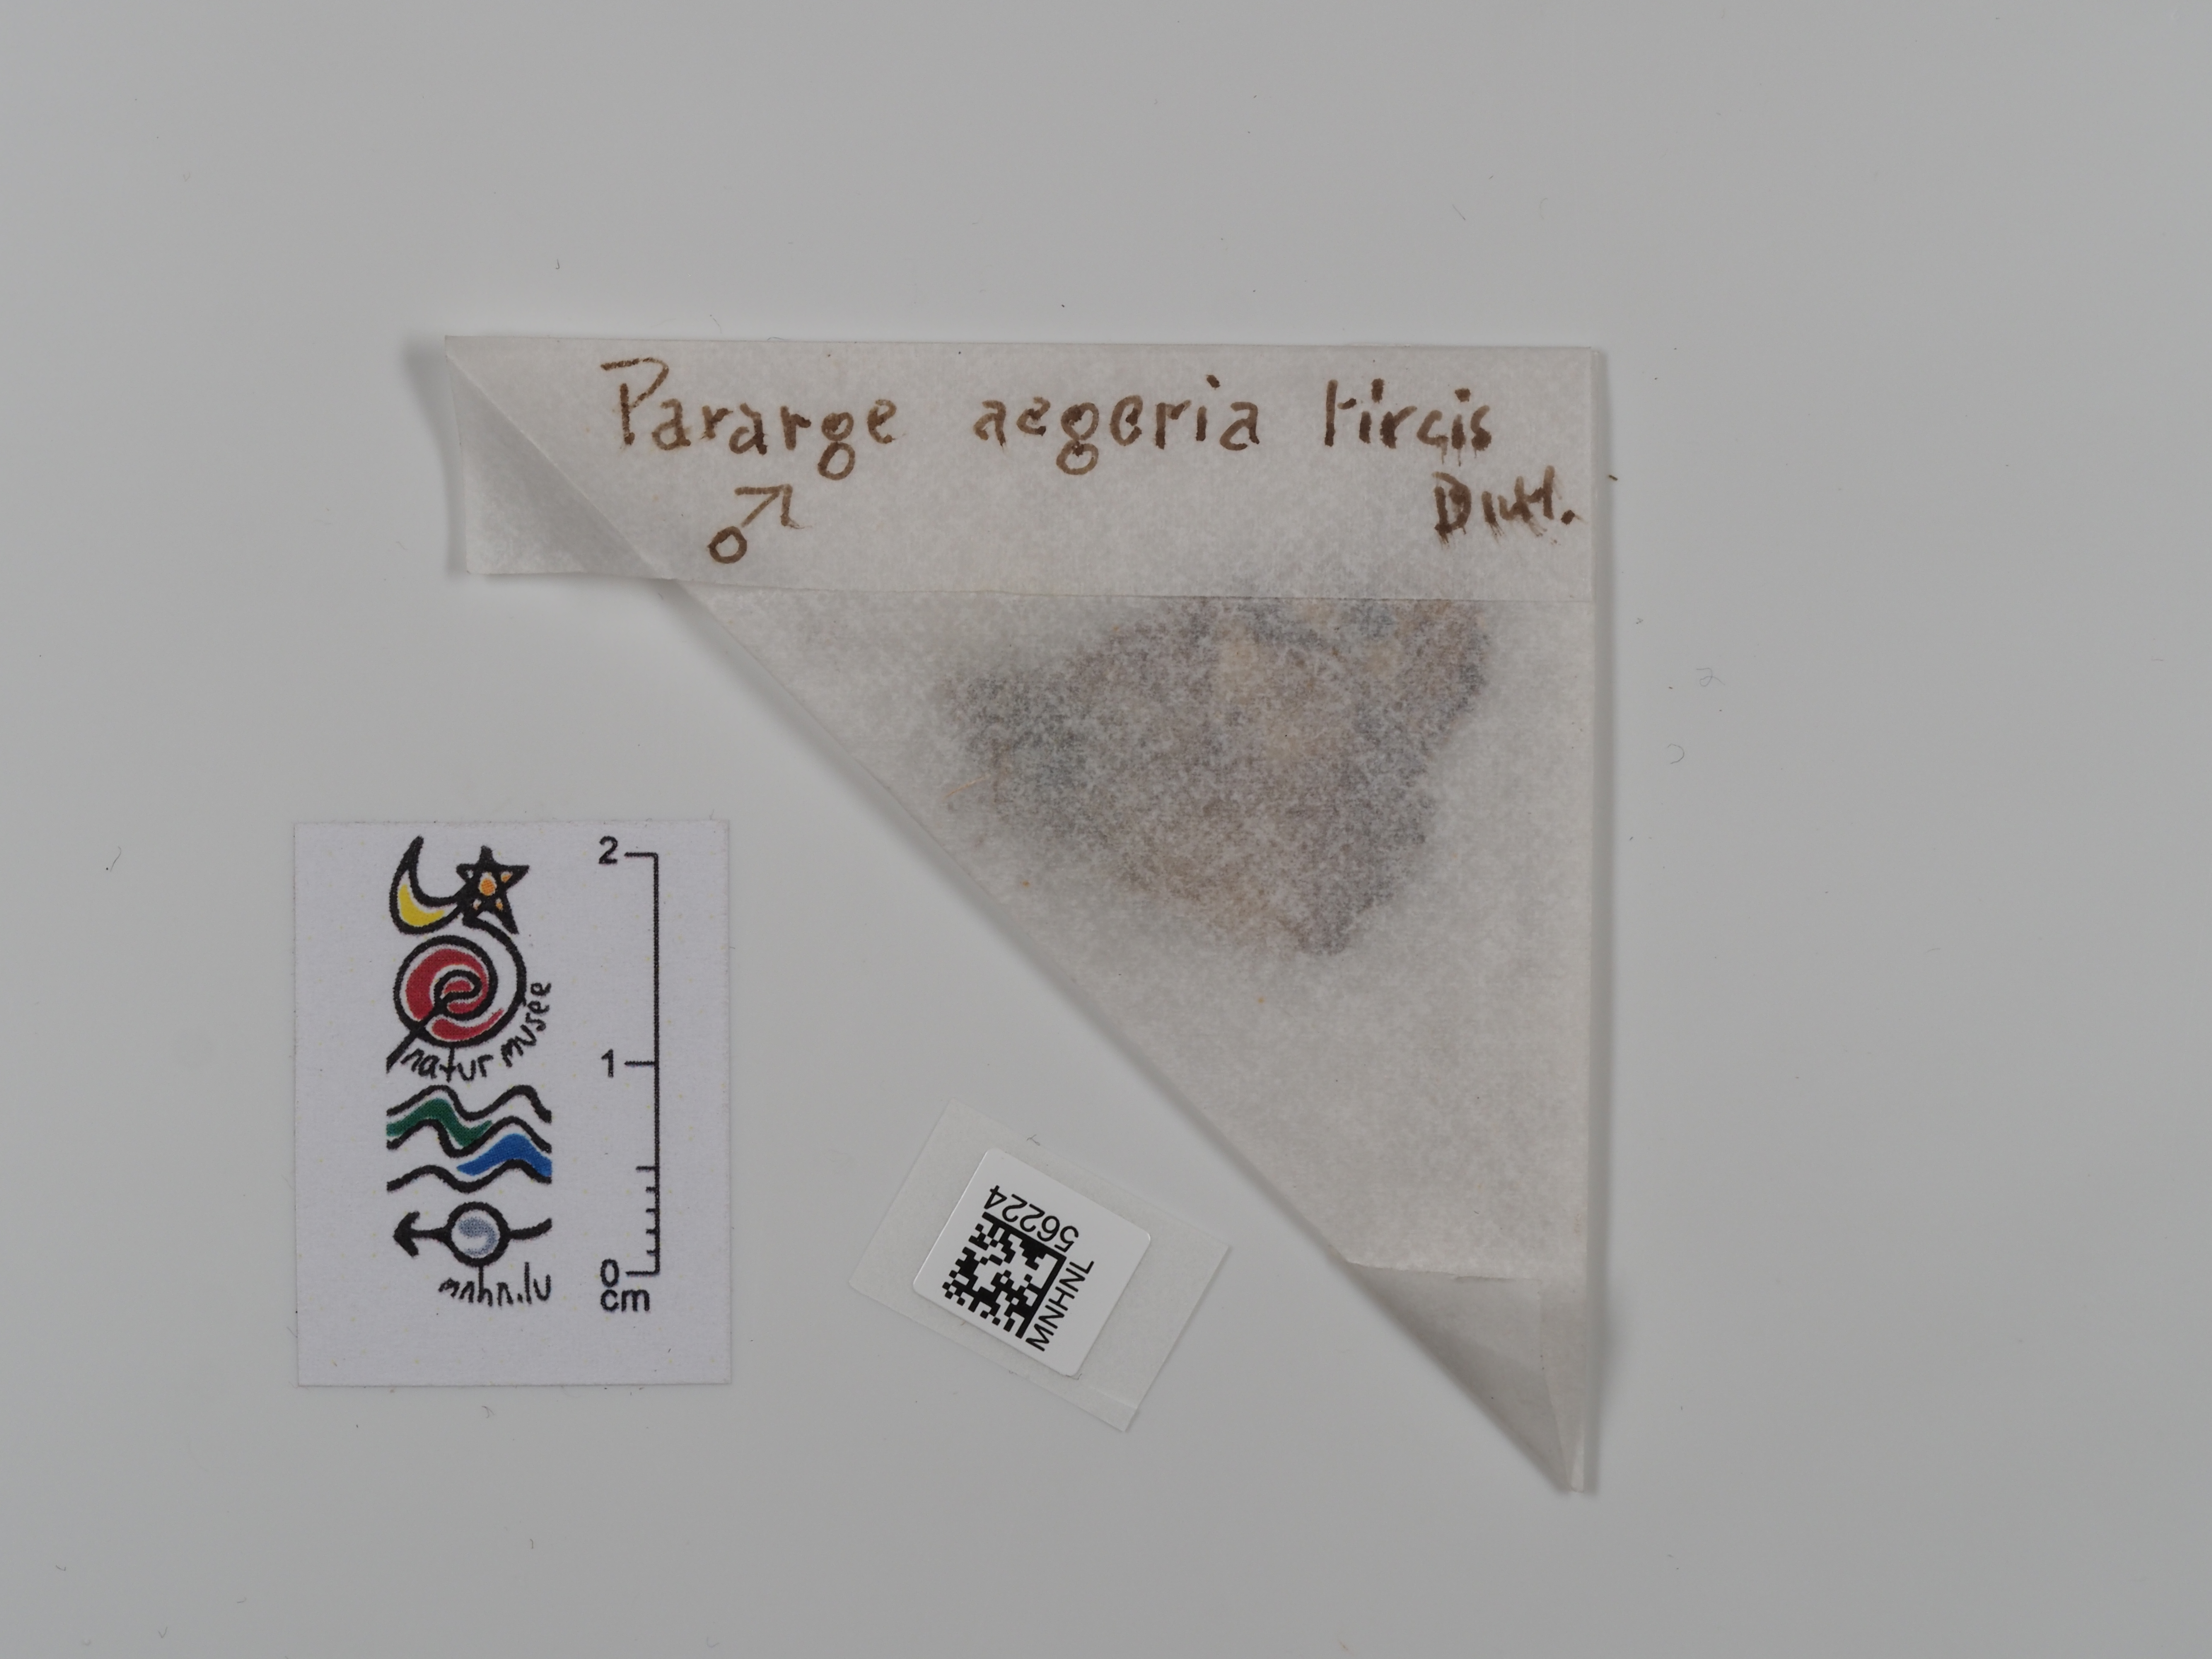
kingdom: Animalia
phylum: Arthropoda
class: Insecta
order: Lepidoptera
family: Nymphalidae
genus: Pararge
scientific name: Pararge aegeria
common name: Speckled wood
